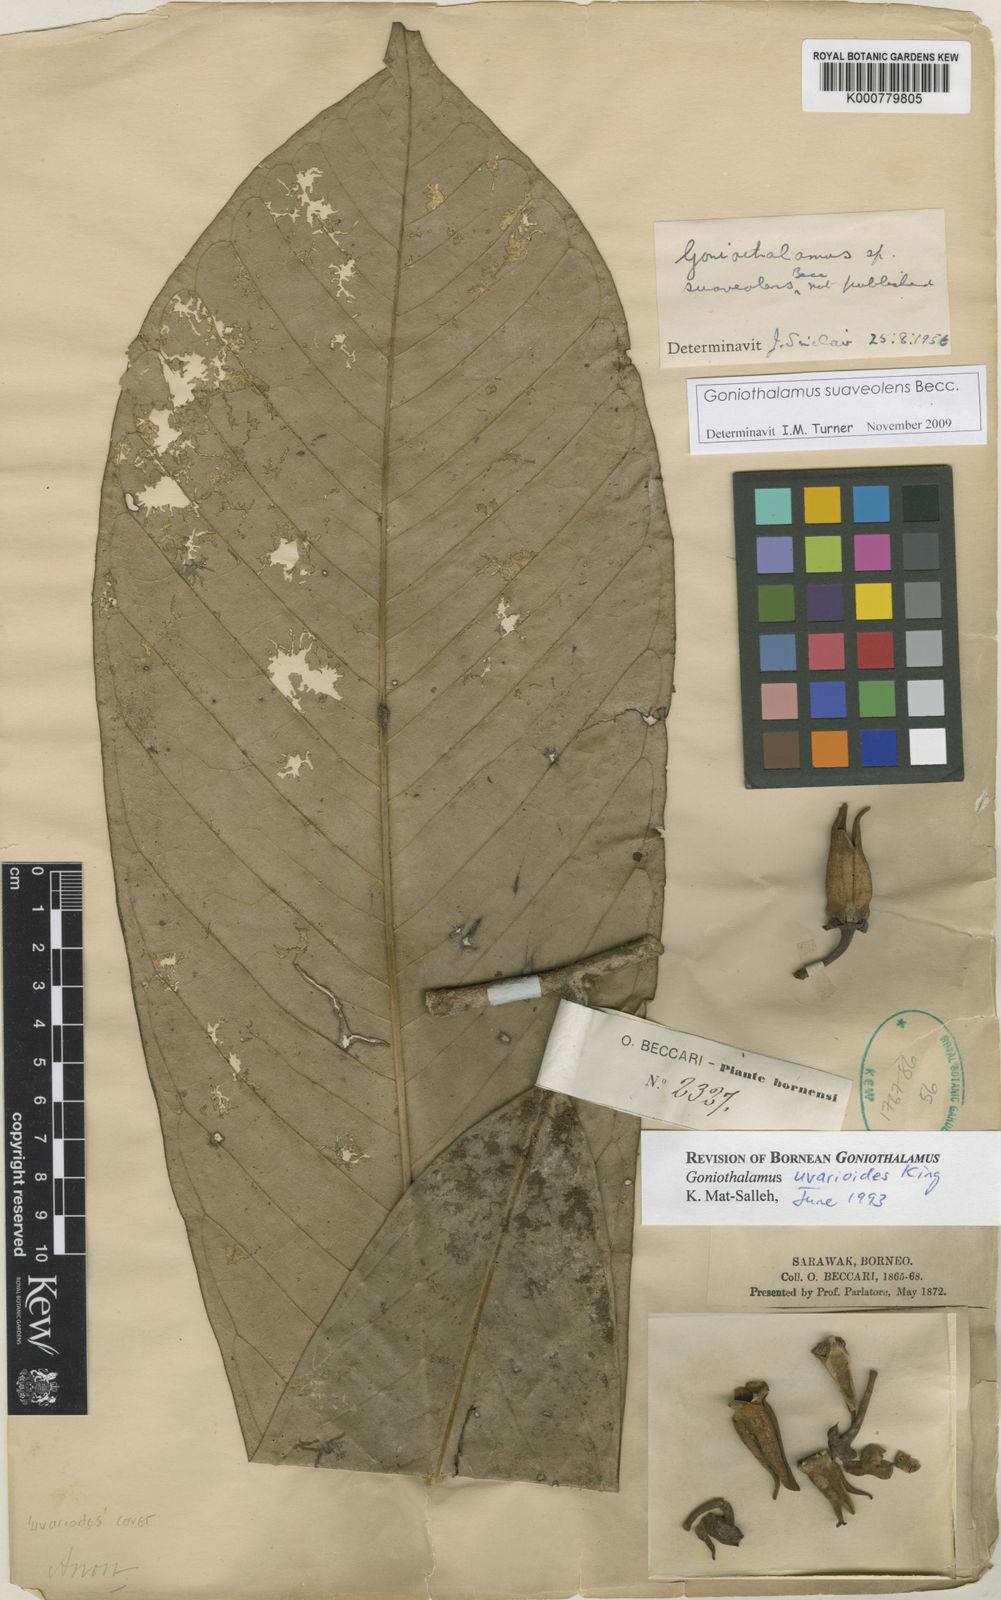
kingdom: Plantae
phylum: Tracheophyta
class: Magnoliopsida
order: Magnoliales
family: Annonaceae
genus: Goniothalamus
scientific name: Goniothalamus macrophyllus
